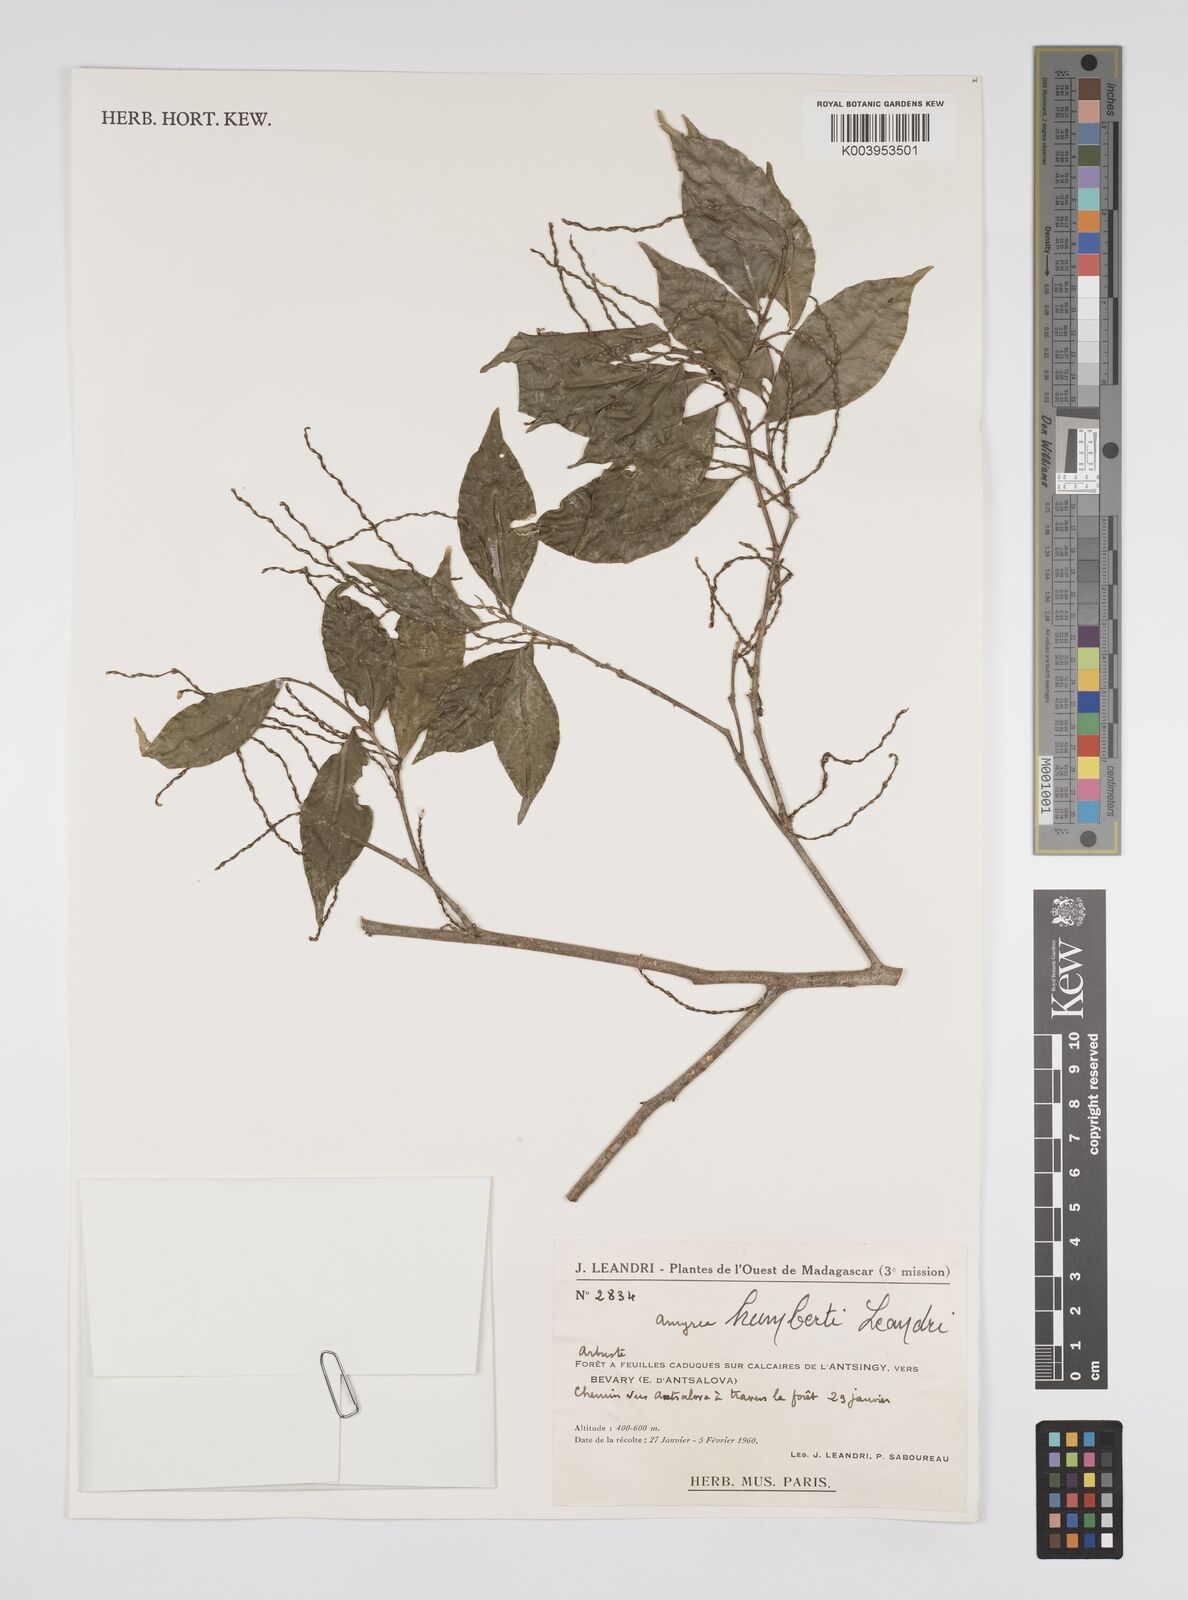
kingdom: Plantae
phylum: Tracheophyta
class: Magnoliopsida
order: Malpighiales
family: Euphorbiaceae
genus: Amyrea
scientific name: Amyrea humbertii
